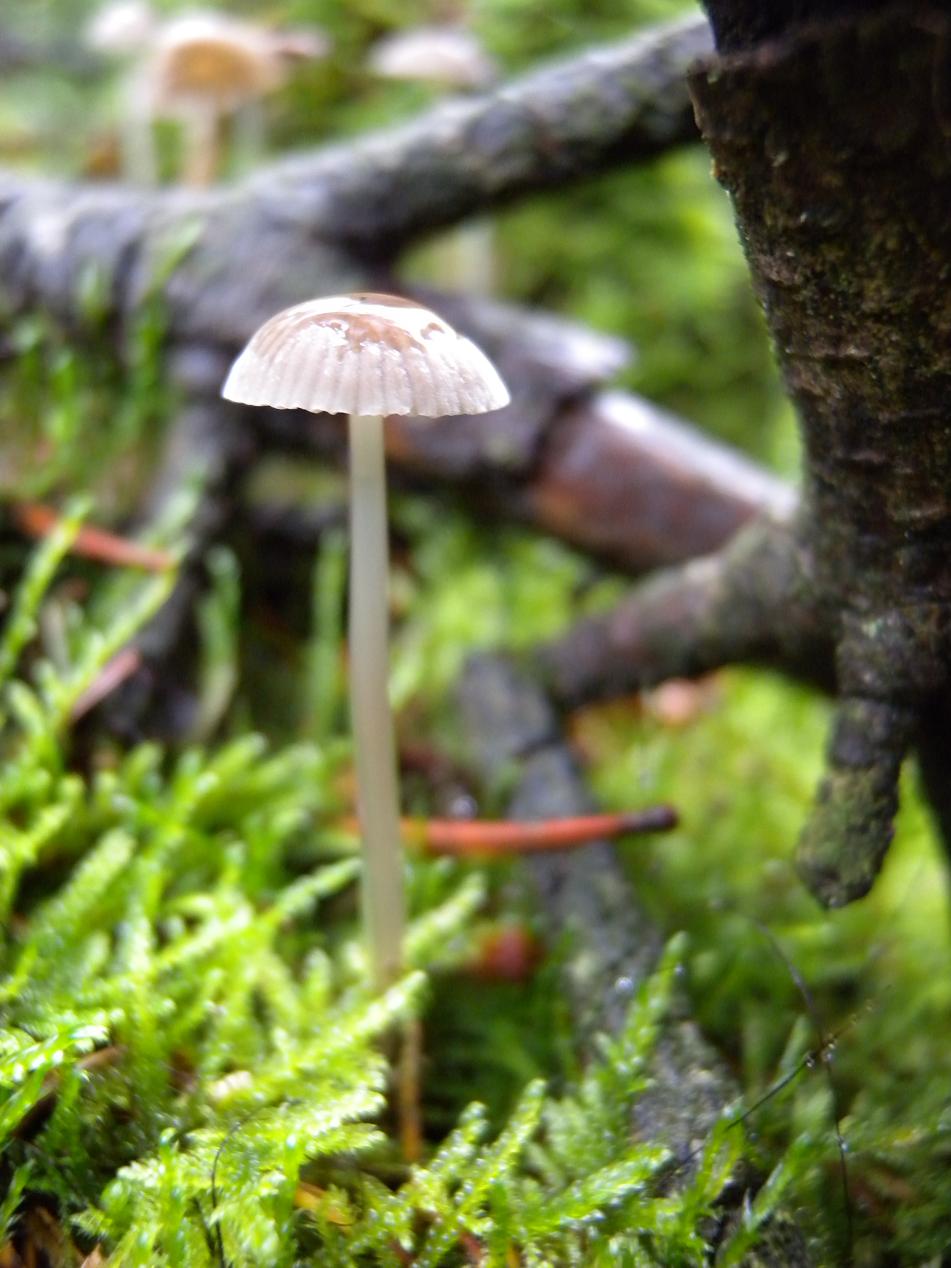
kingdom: Fungi
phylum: Basidiomycota
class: Agaricomycetes
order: Agaricales
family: Mycenaceae
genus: Mycena
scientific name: Mycena clavicularis
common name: fyrre-huesvamp
